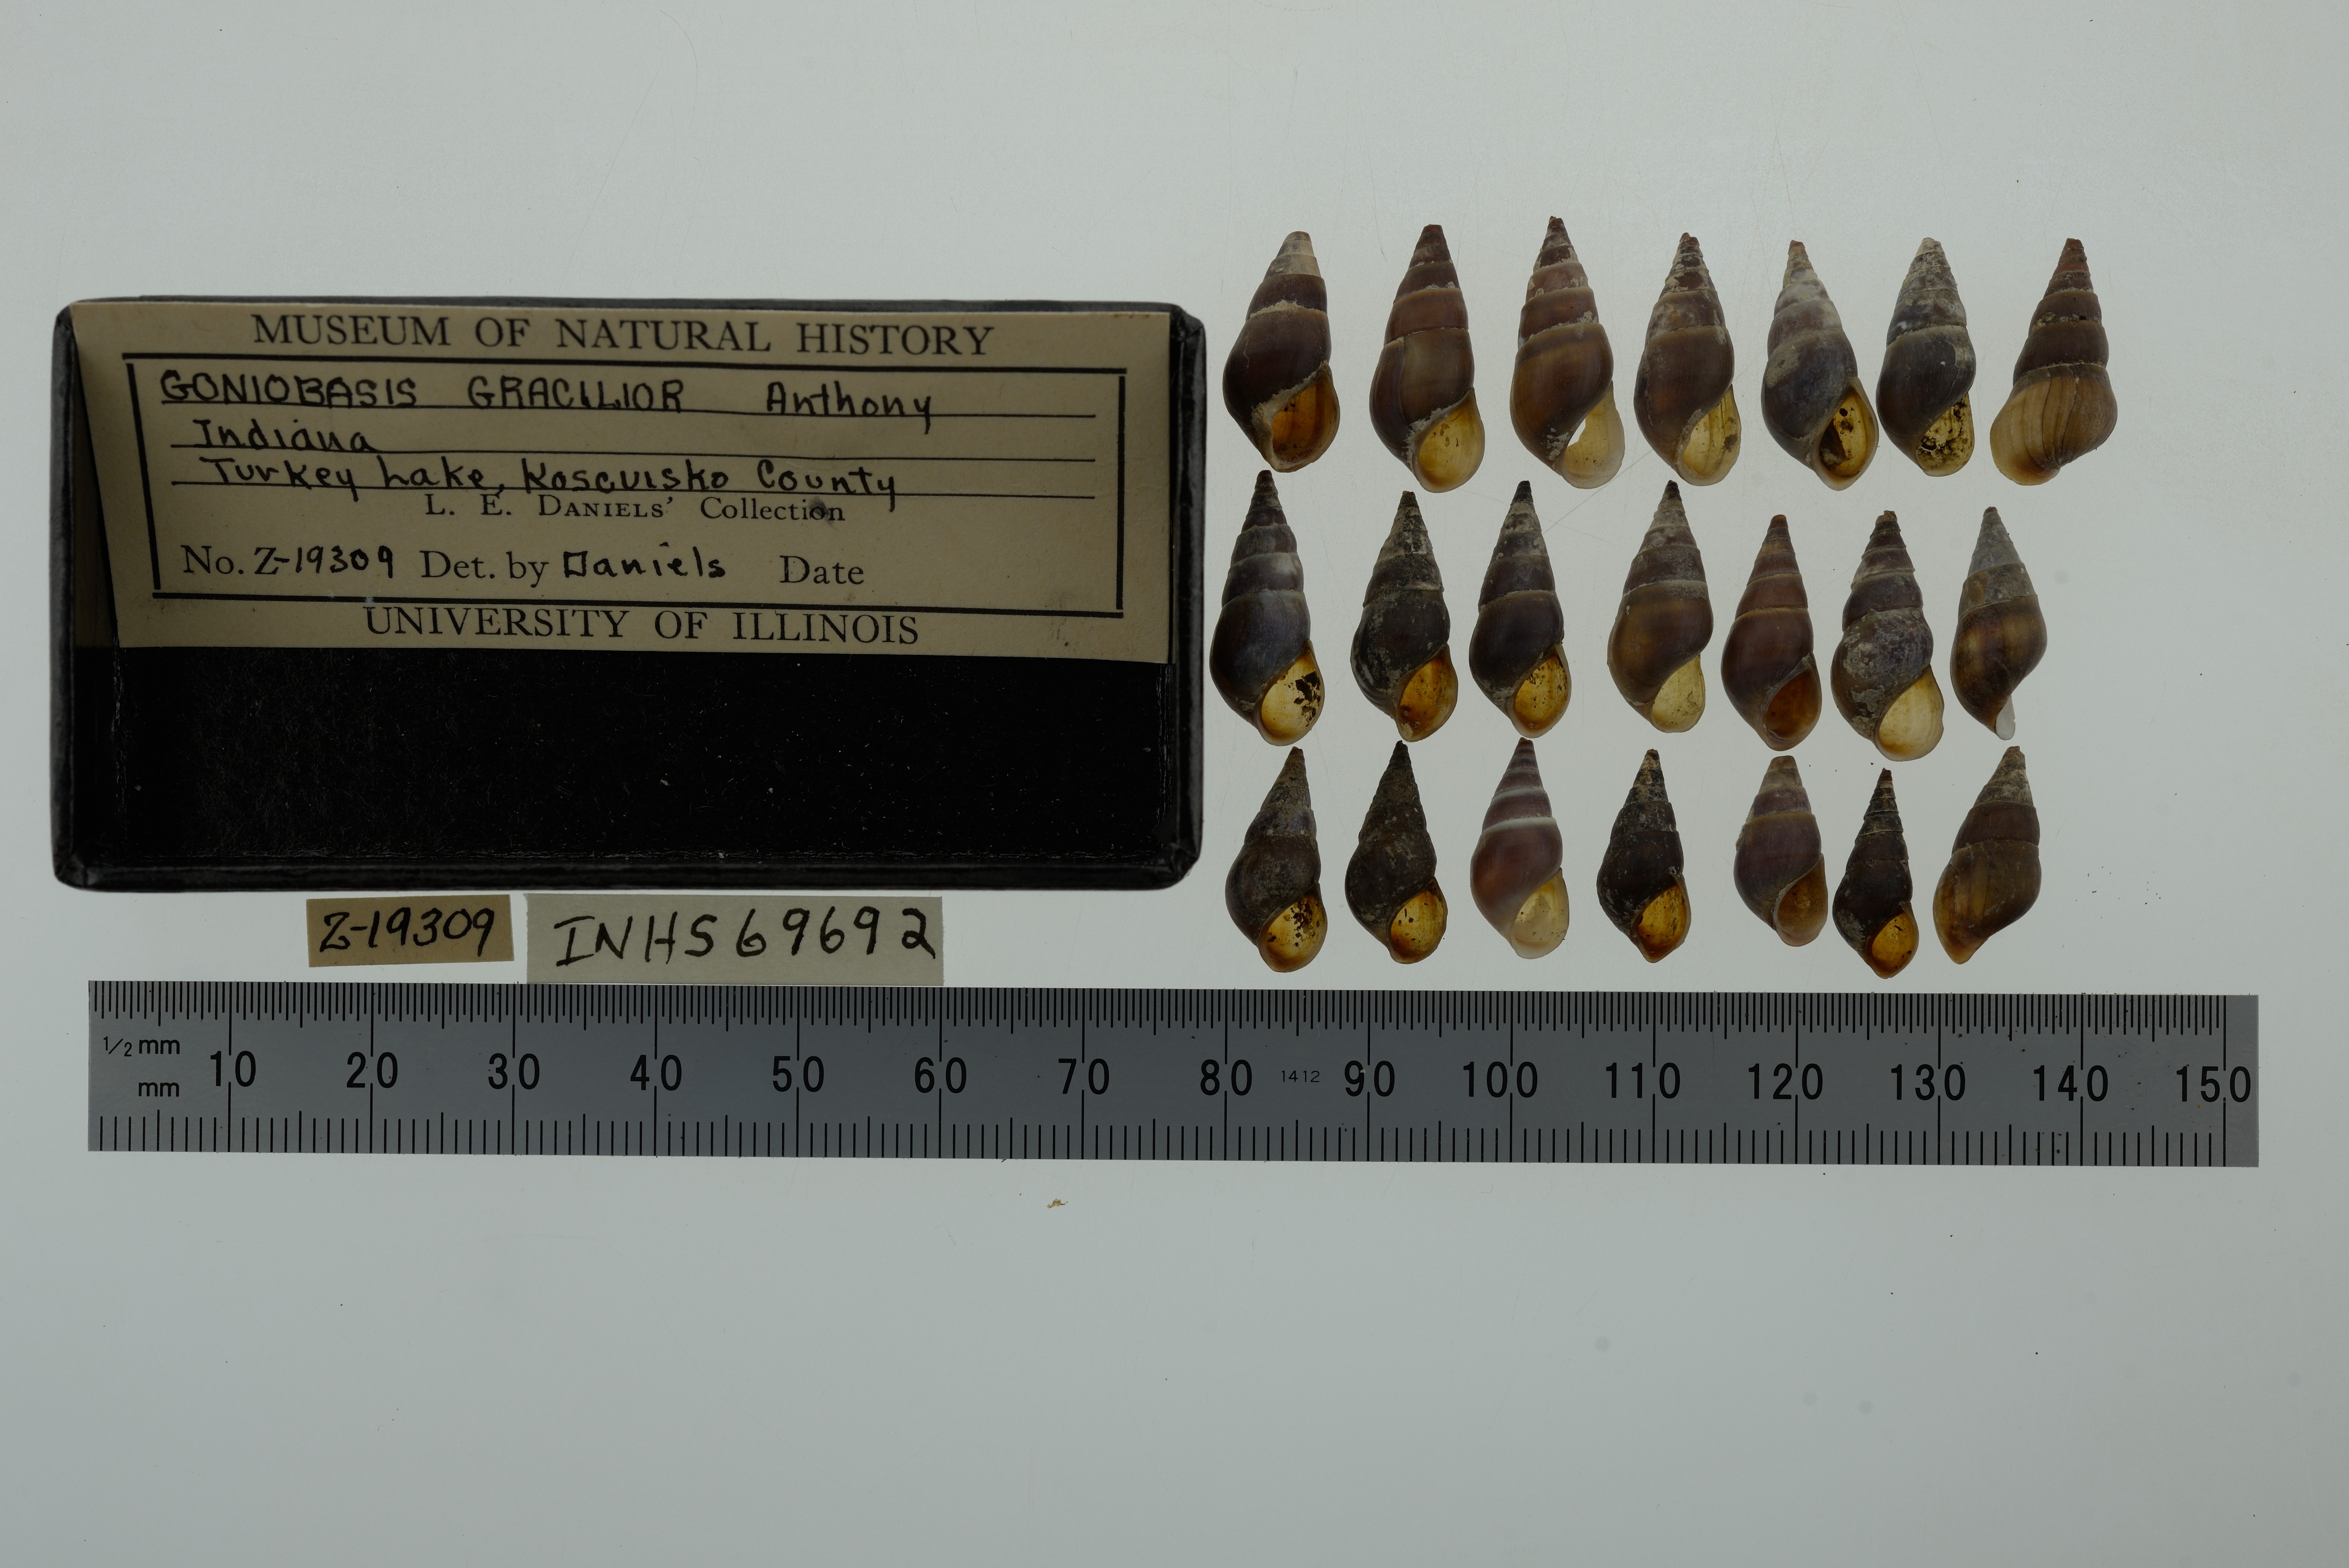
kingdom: Animalia
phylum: Mollusca
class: Gastropoda
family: Pleuroceridae
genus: Elimia
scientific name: Elimia livescens
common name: Liver elimia
